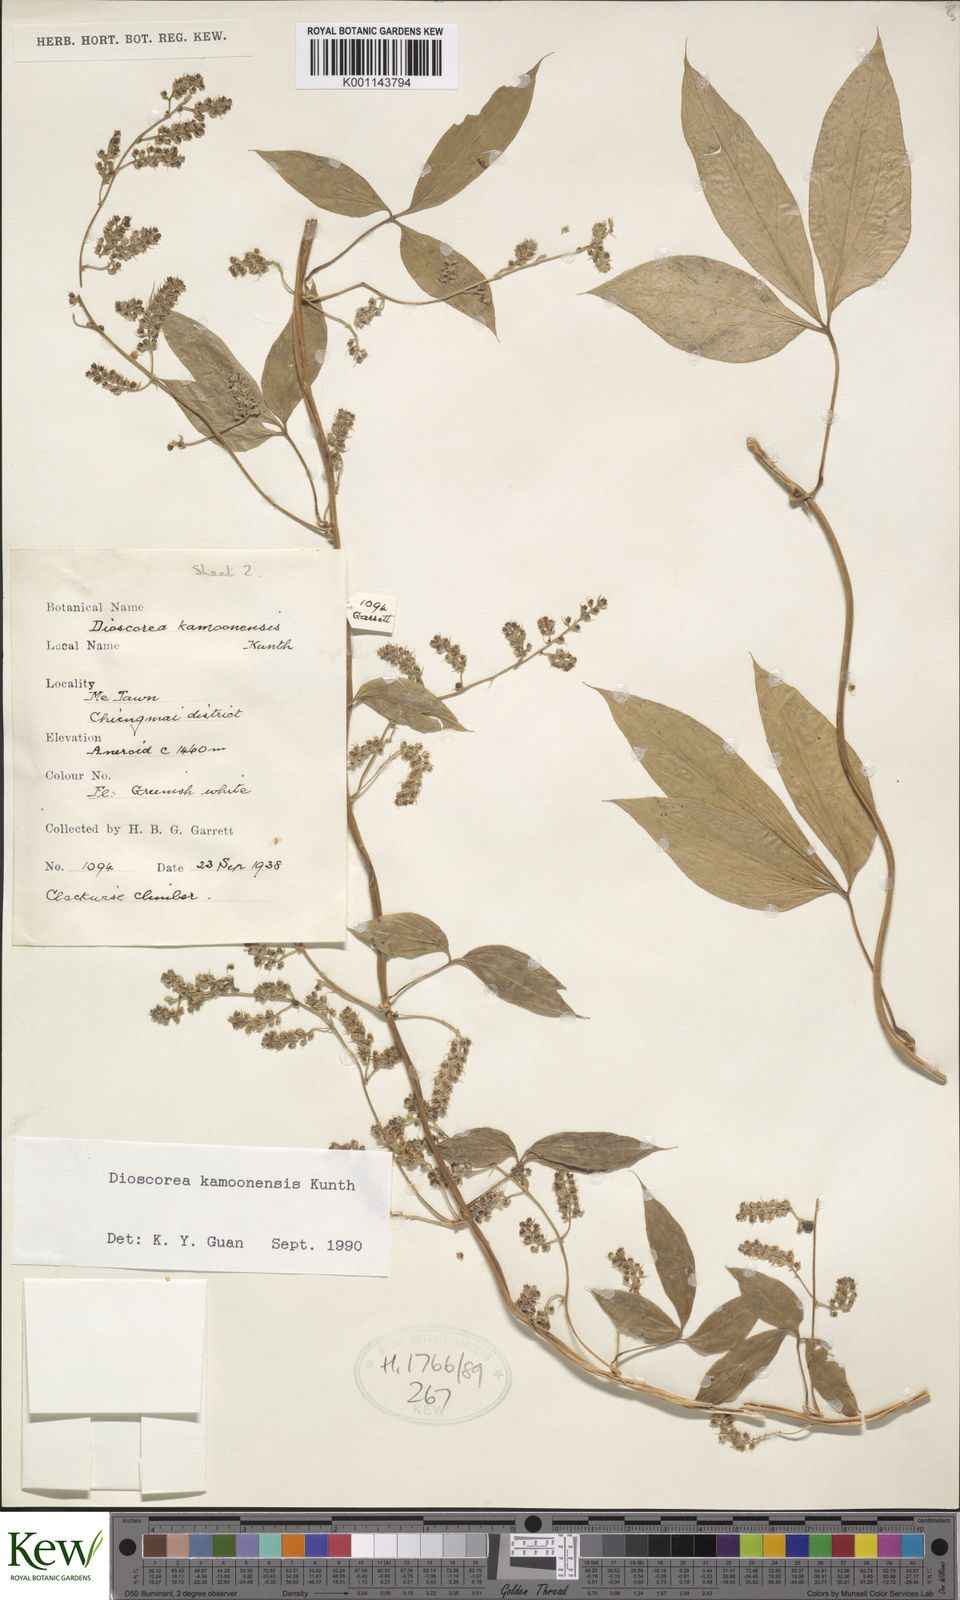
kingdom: Plantae
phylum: Tracheophyta
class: Liliopsida
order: Dioscoreales
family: Dioscoreaceae
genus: Dioscorea
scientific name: Dioscorea kamoonensis
